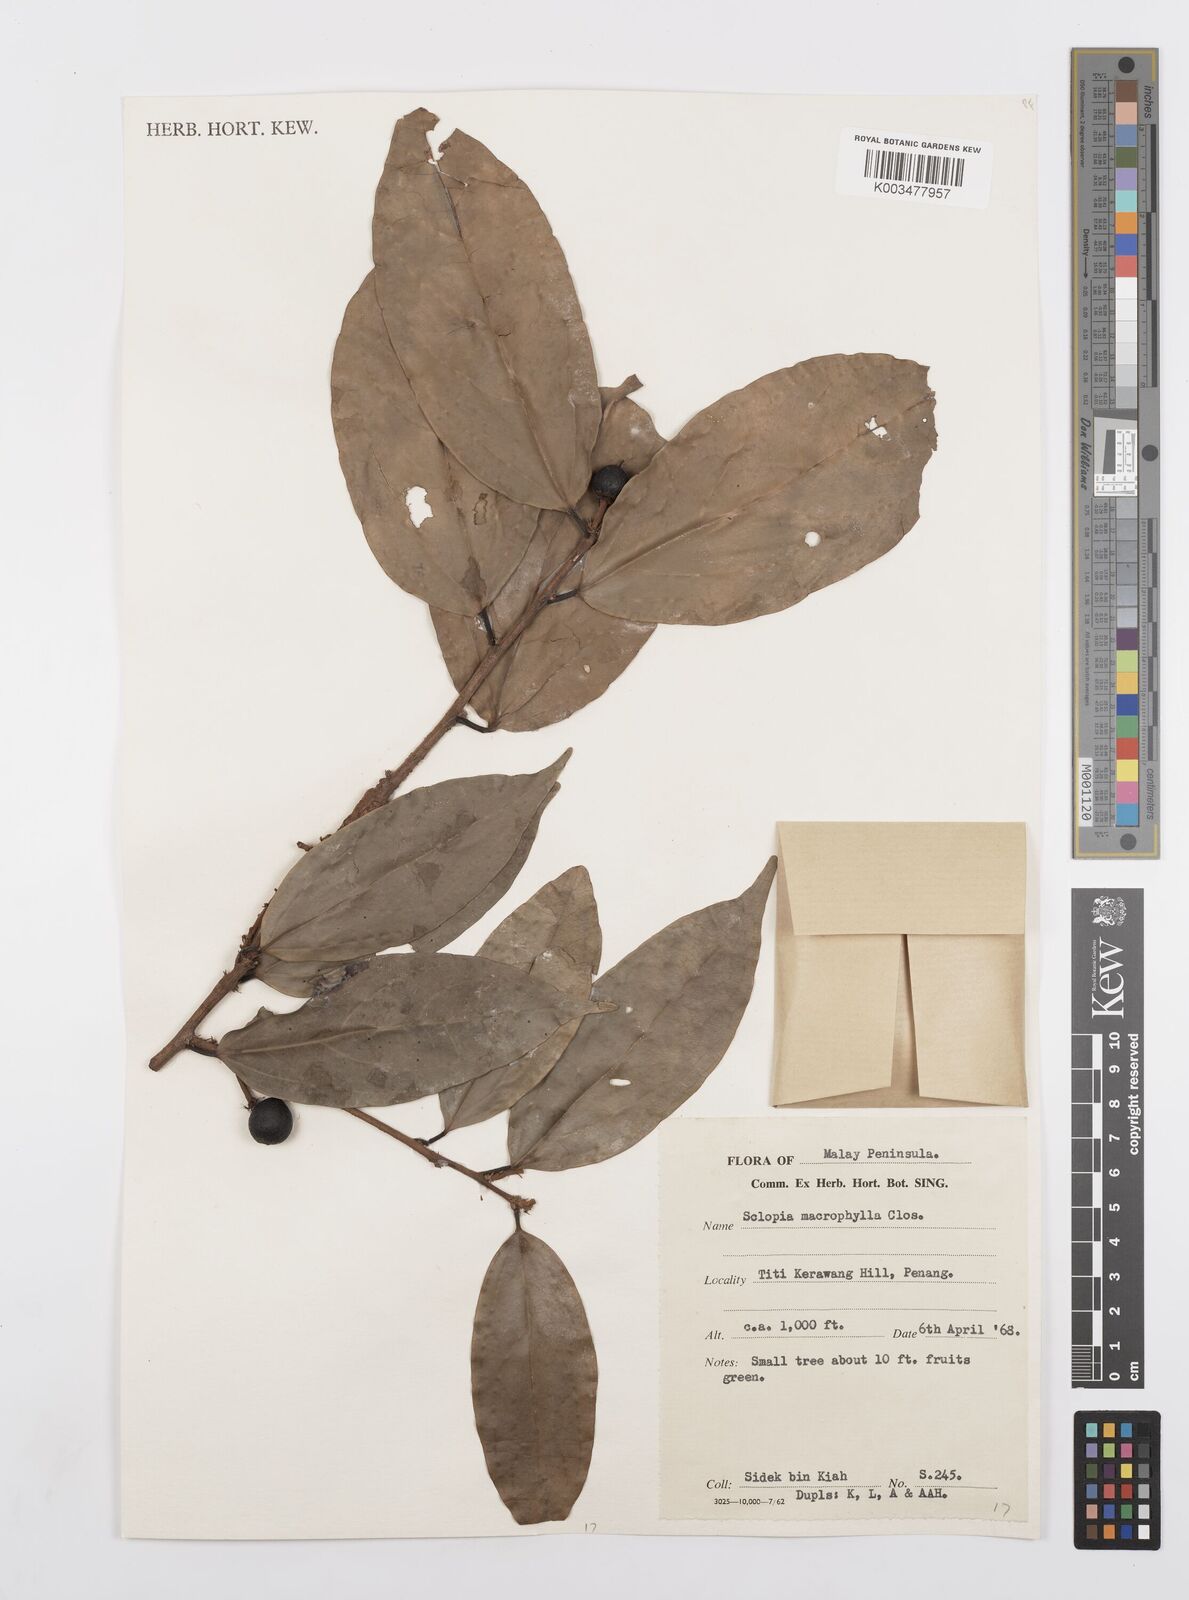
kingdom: Plantae
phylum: Tracheophyta
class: Magnoliopsida
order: Malpighiales
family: Salicaceae
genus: Scolopia
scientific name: Scolopia macrophylla
